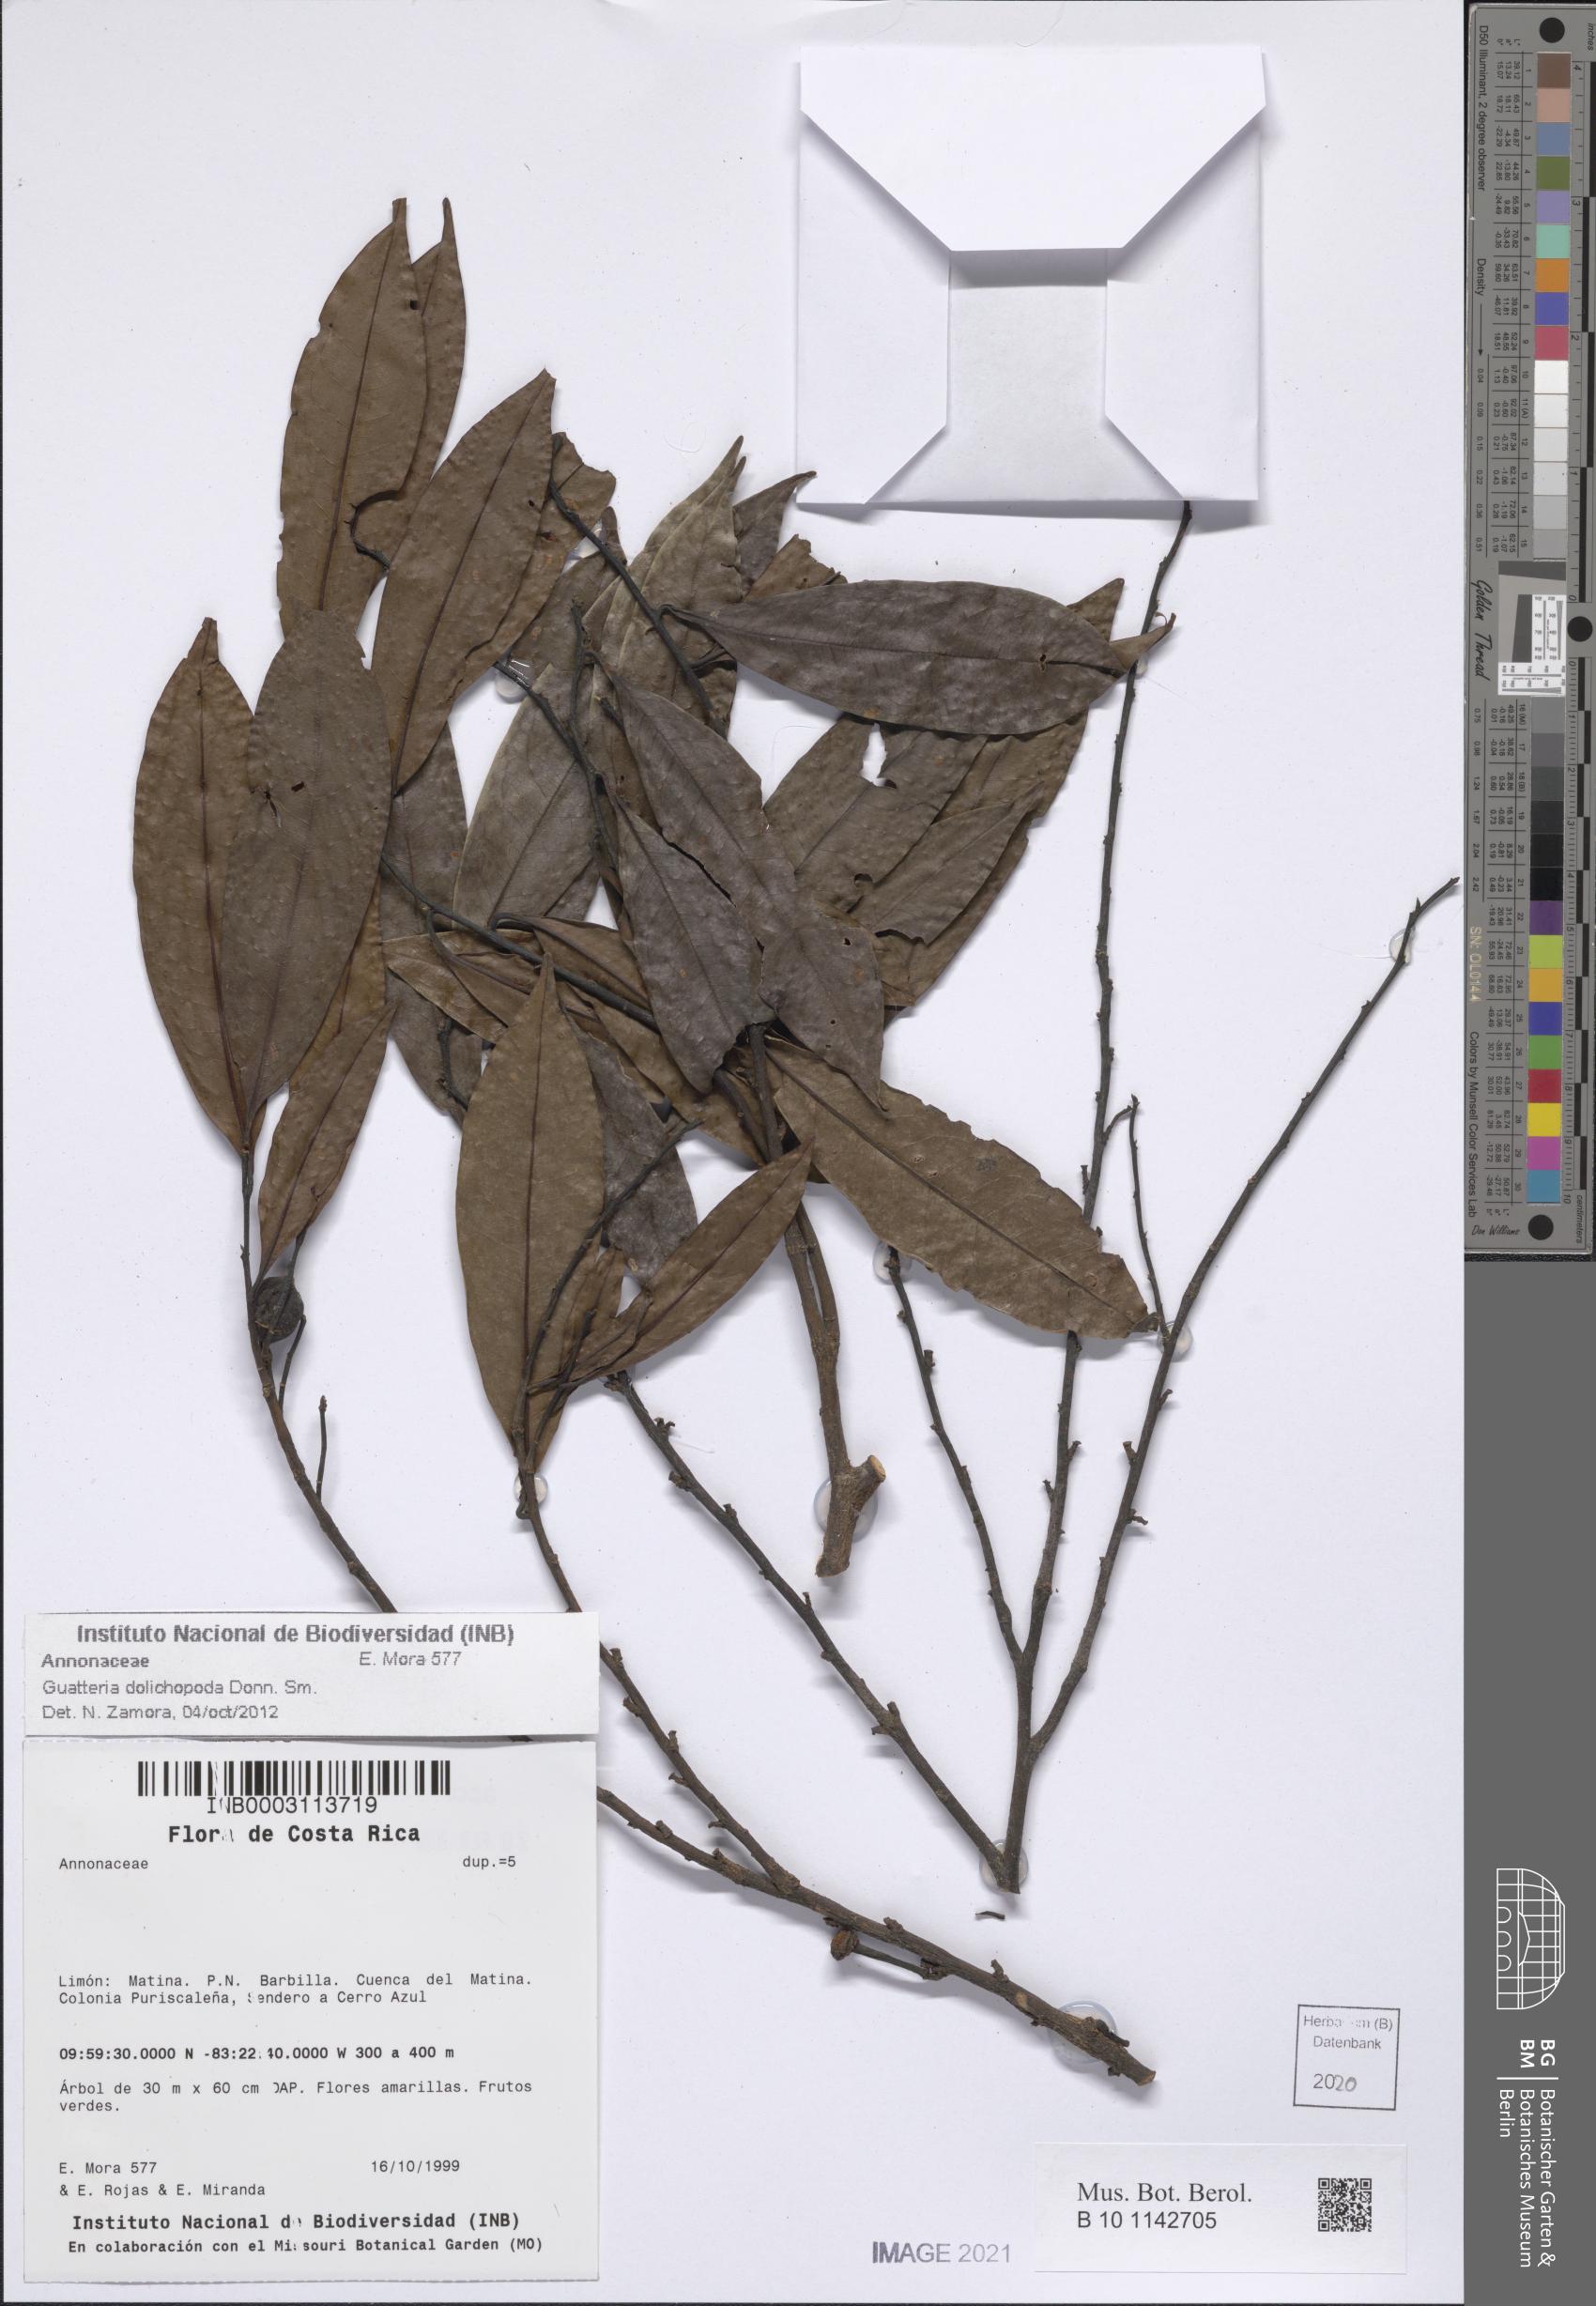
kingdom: Plantae
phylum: Tracheophyta
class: Magnoliopsida
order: Magnoliales
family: Annonaceae
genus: Guatteria
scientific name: Guatteria dolichopoda
